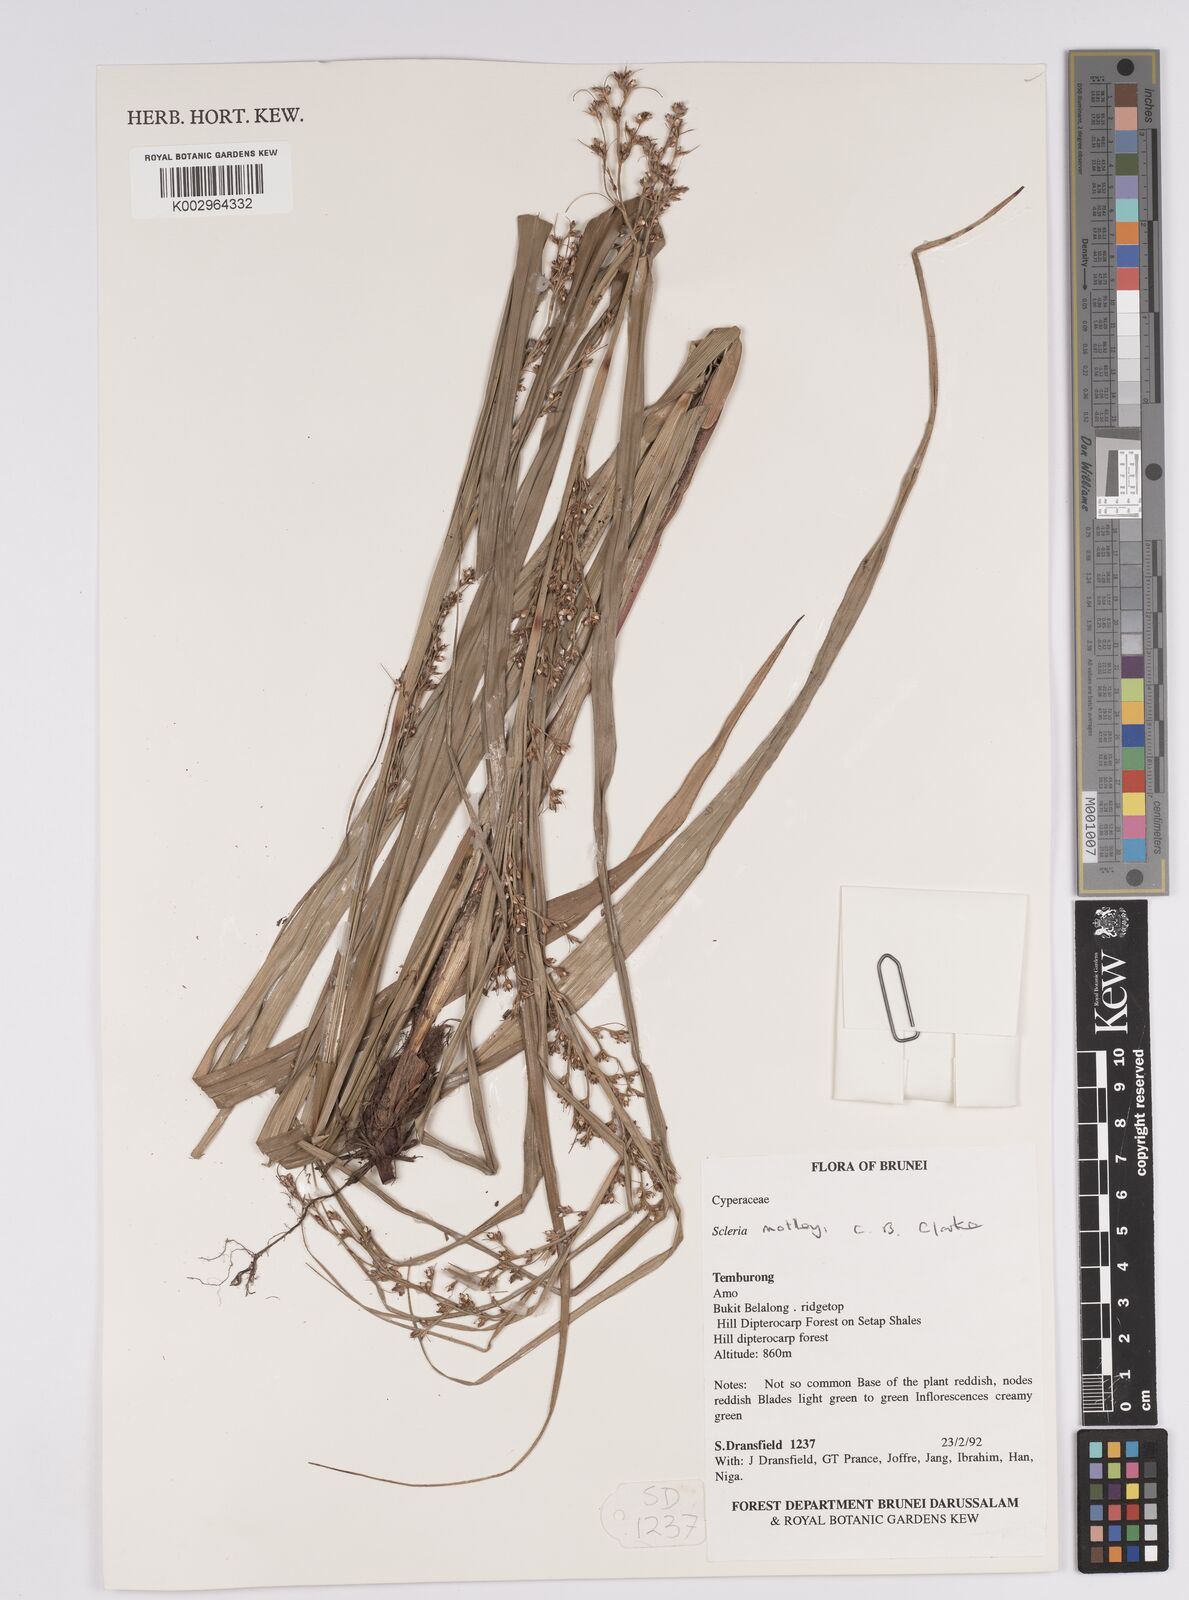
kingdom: Plantae
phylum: Tracheophyta
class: Liliopsida
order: Poales
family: Cyperaceae
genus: Scleria
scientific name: Scleria motleyi
